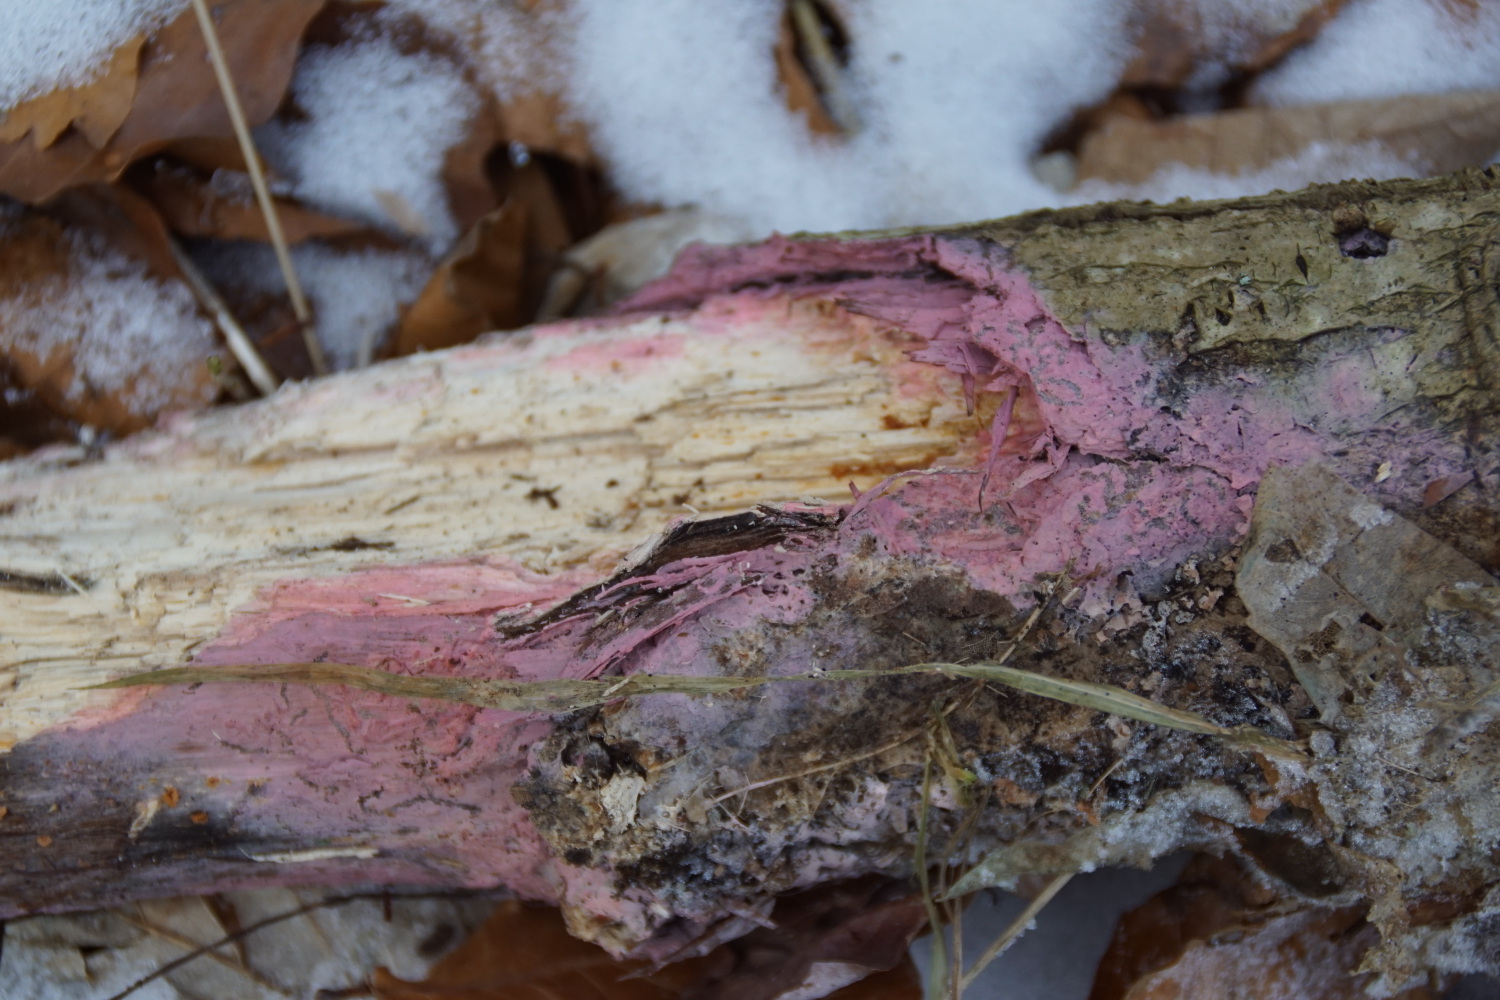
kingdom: Fungi
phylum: Basidiomycota
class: Agaricomycetes
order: Cantharellales
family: Tulasnellaceae
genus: Tulasnella
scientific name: Tulasnella violea
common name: violet ballonhinde
